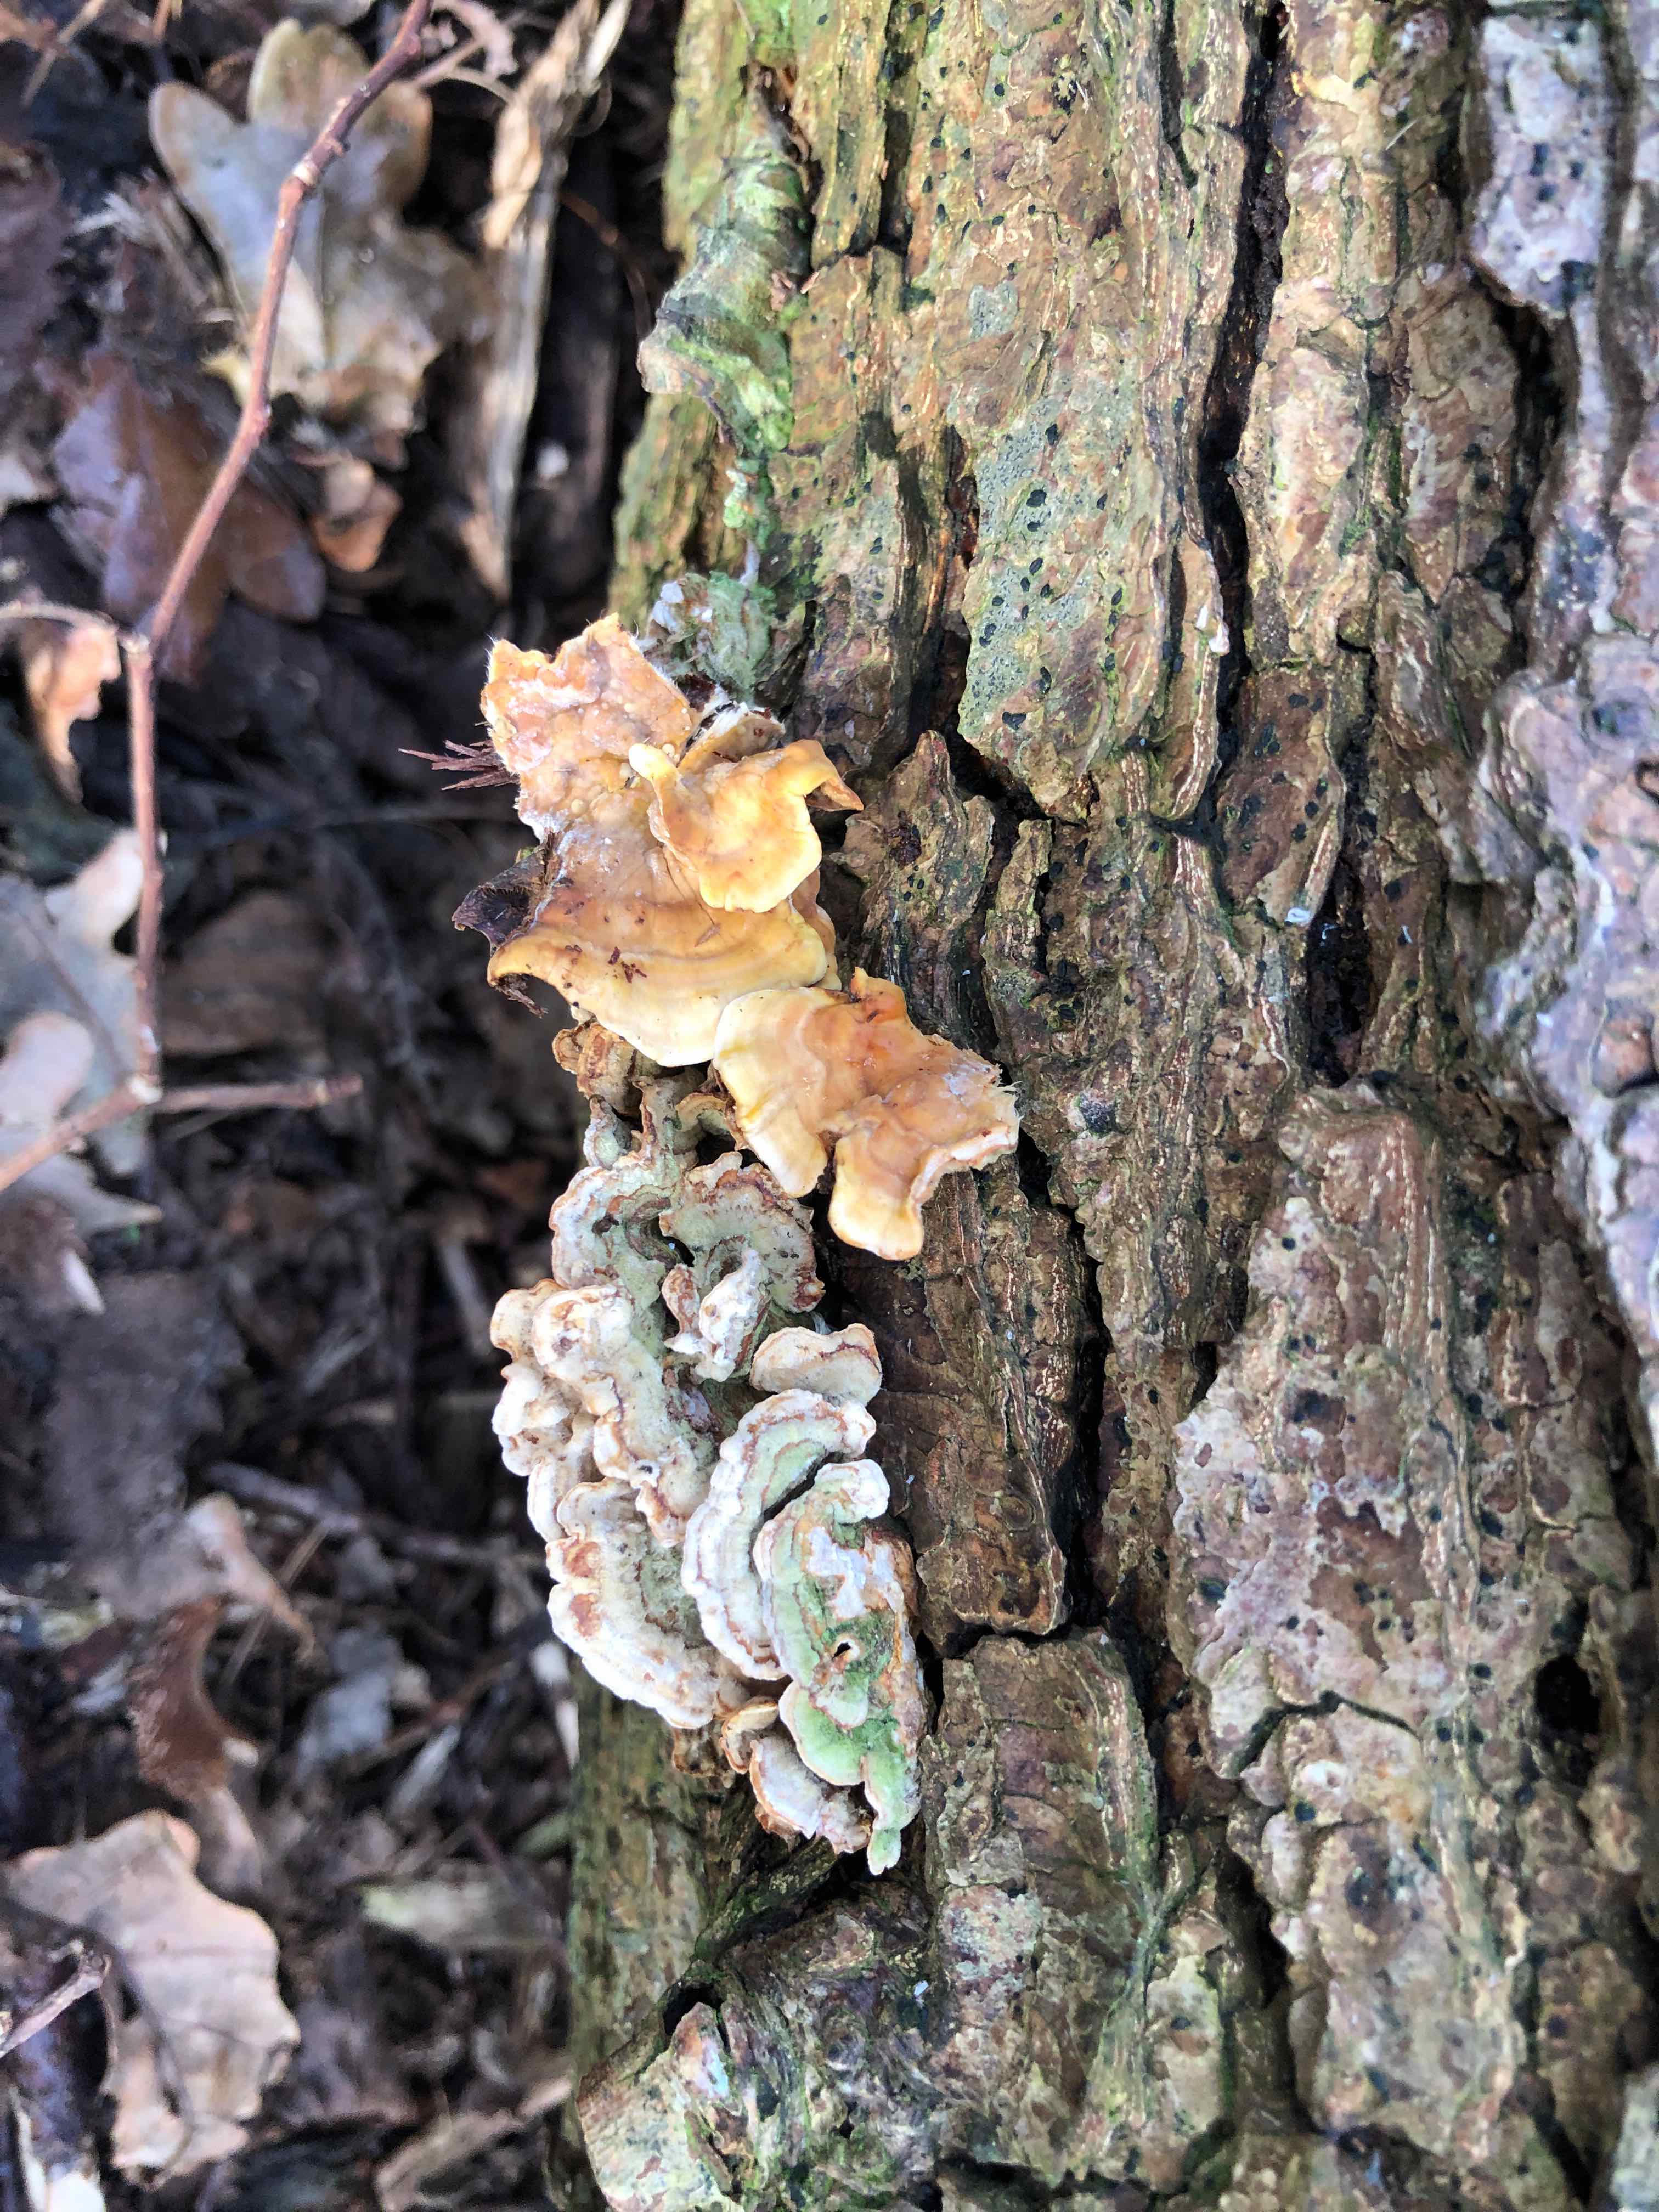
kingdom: Fungi
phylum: Basidiomycota
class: Agaricomycetes
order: Russulales
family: Stereaceae
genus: Stereum
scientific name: Stereum hirsutum
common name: håret lædersvamp
